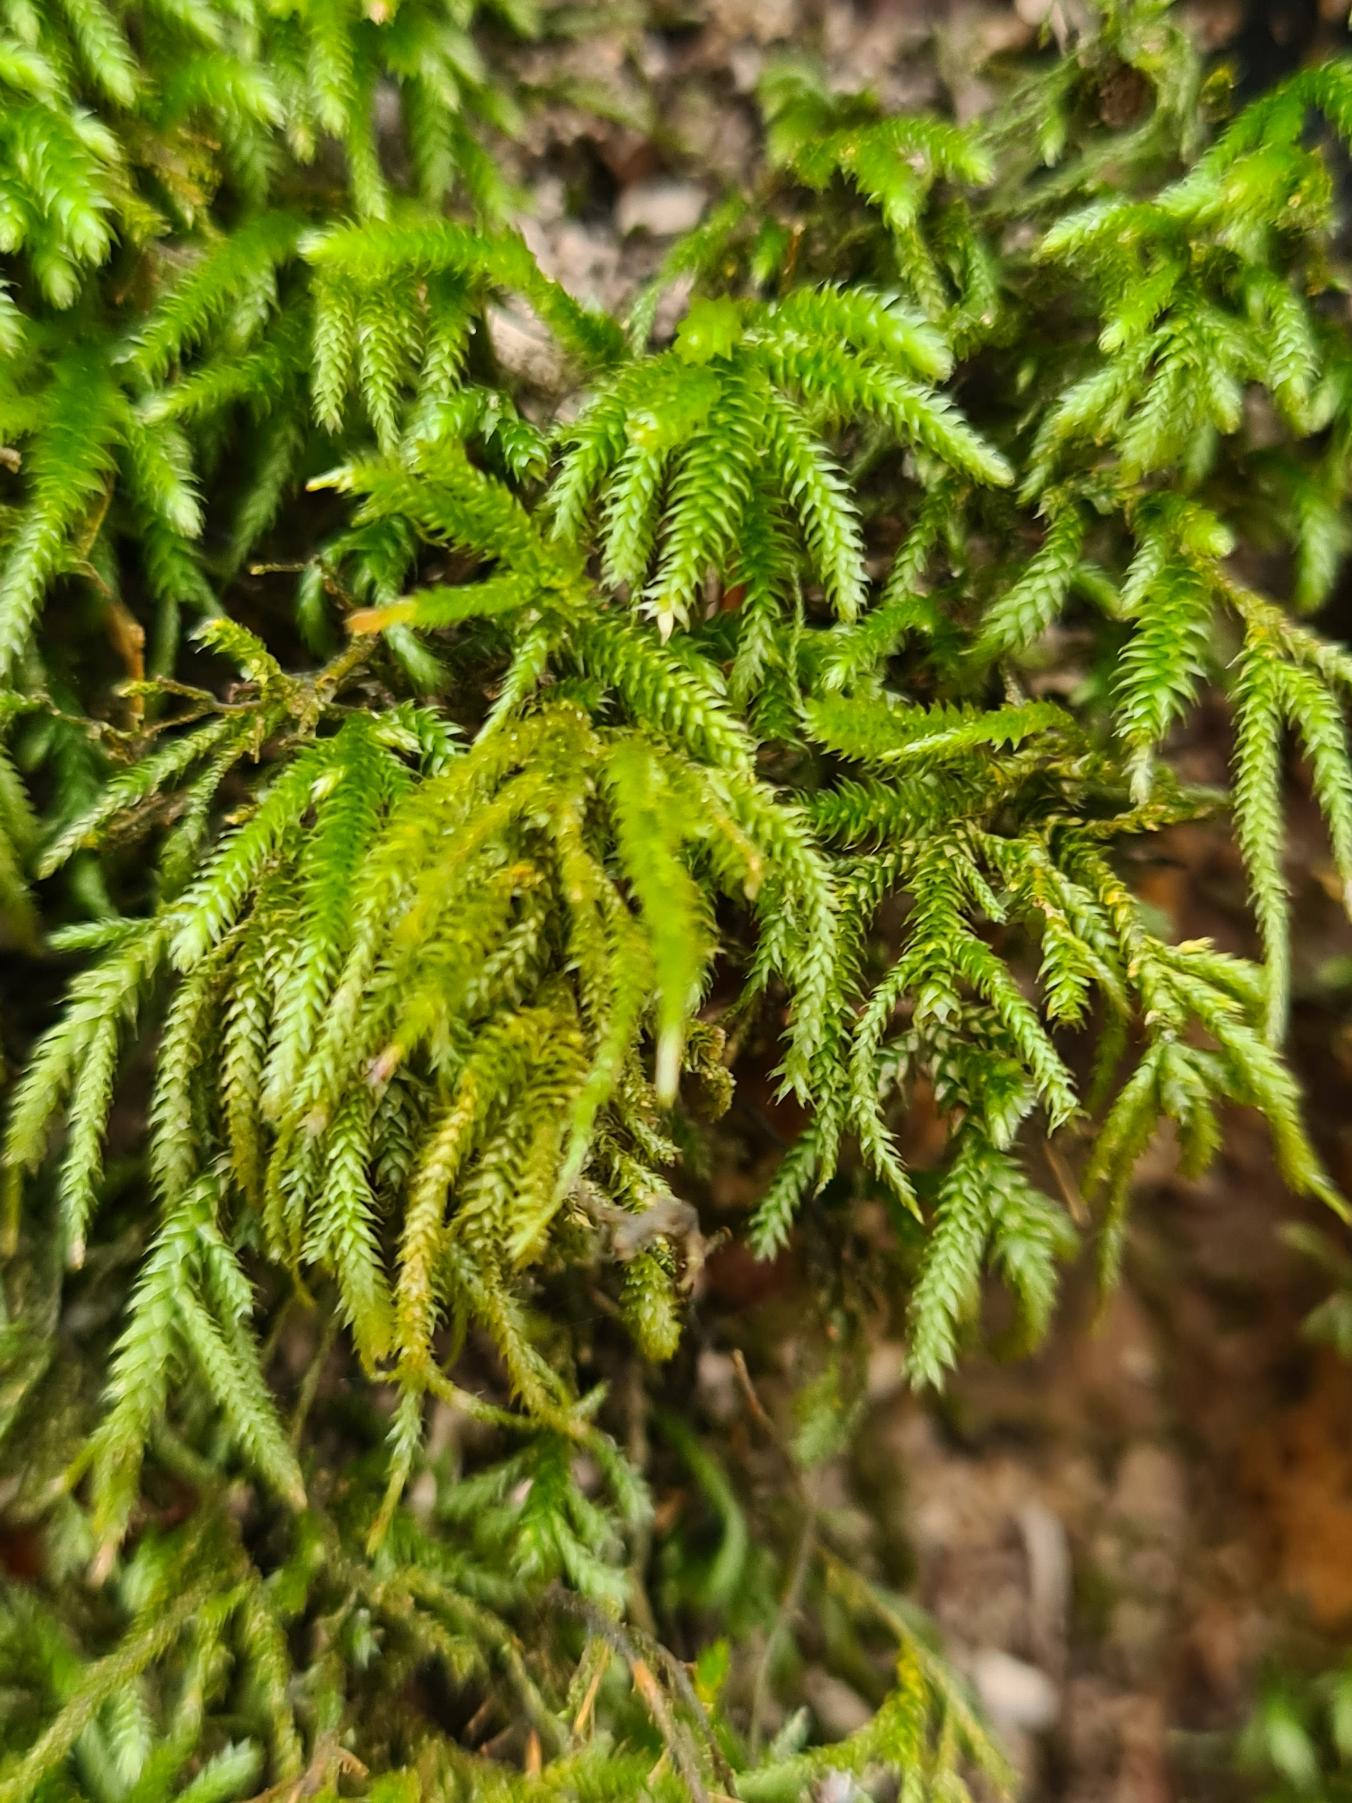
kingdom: Plantae
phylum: Bryophyta
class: Bryopsida
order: Hypnales
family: Lembophyllaceae
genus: Nogopterium
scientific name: Nogopterium gracile
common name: Tæt fugleklomos
